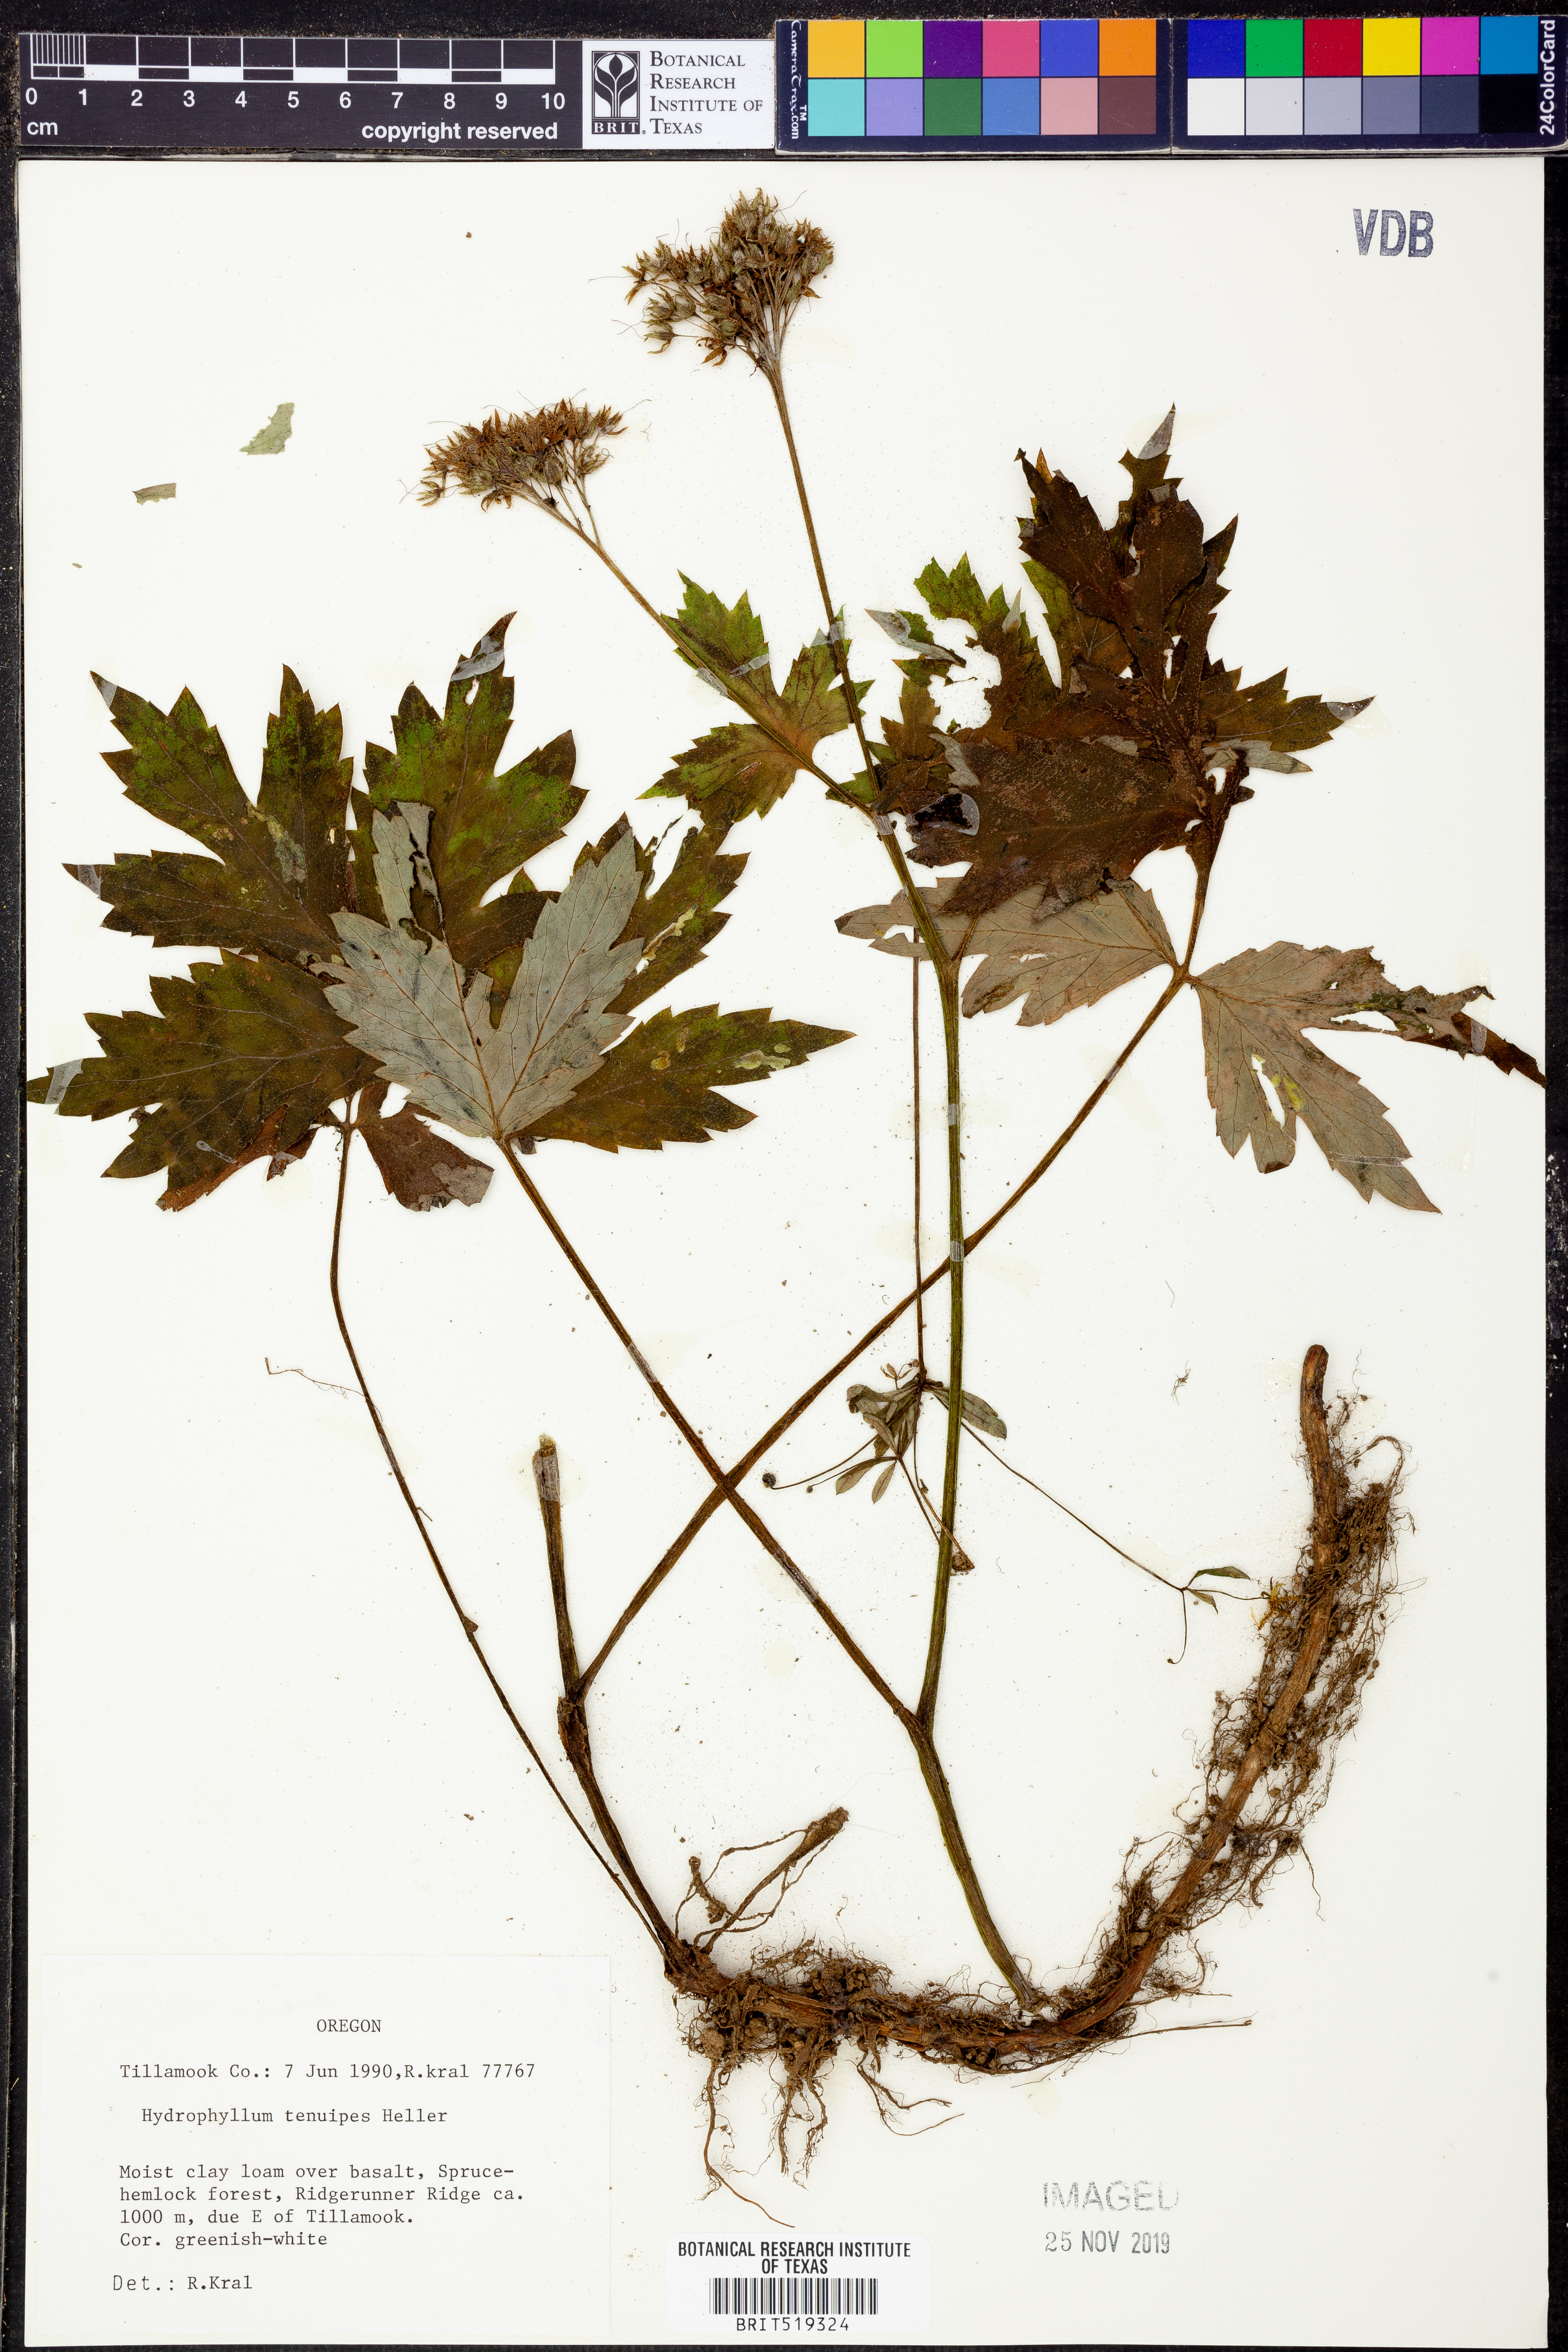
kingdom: Plantae
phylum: Tracheophyta
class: Magnoliopsida
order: Boraginales
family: Hydrophyllaceae
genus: Hydrophyllum
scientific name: Hydrophyllum tenuipes
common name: Pacific waterleaf
